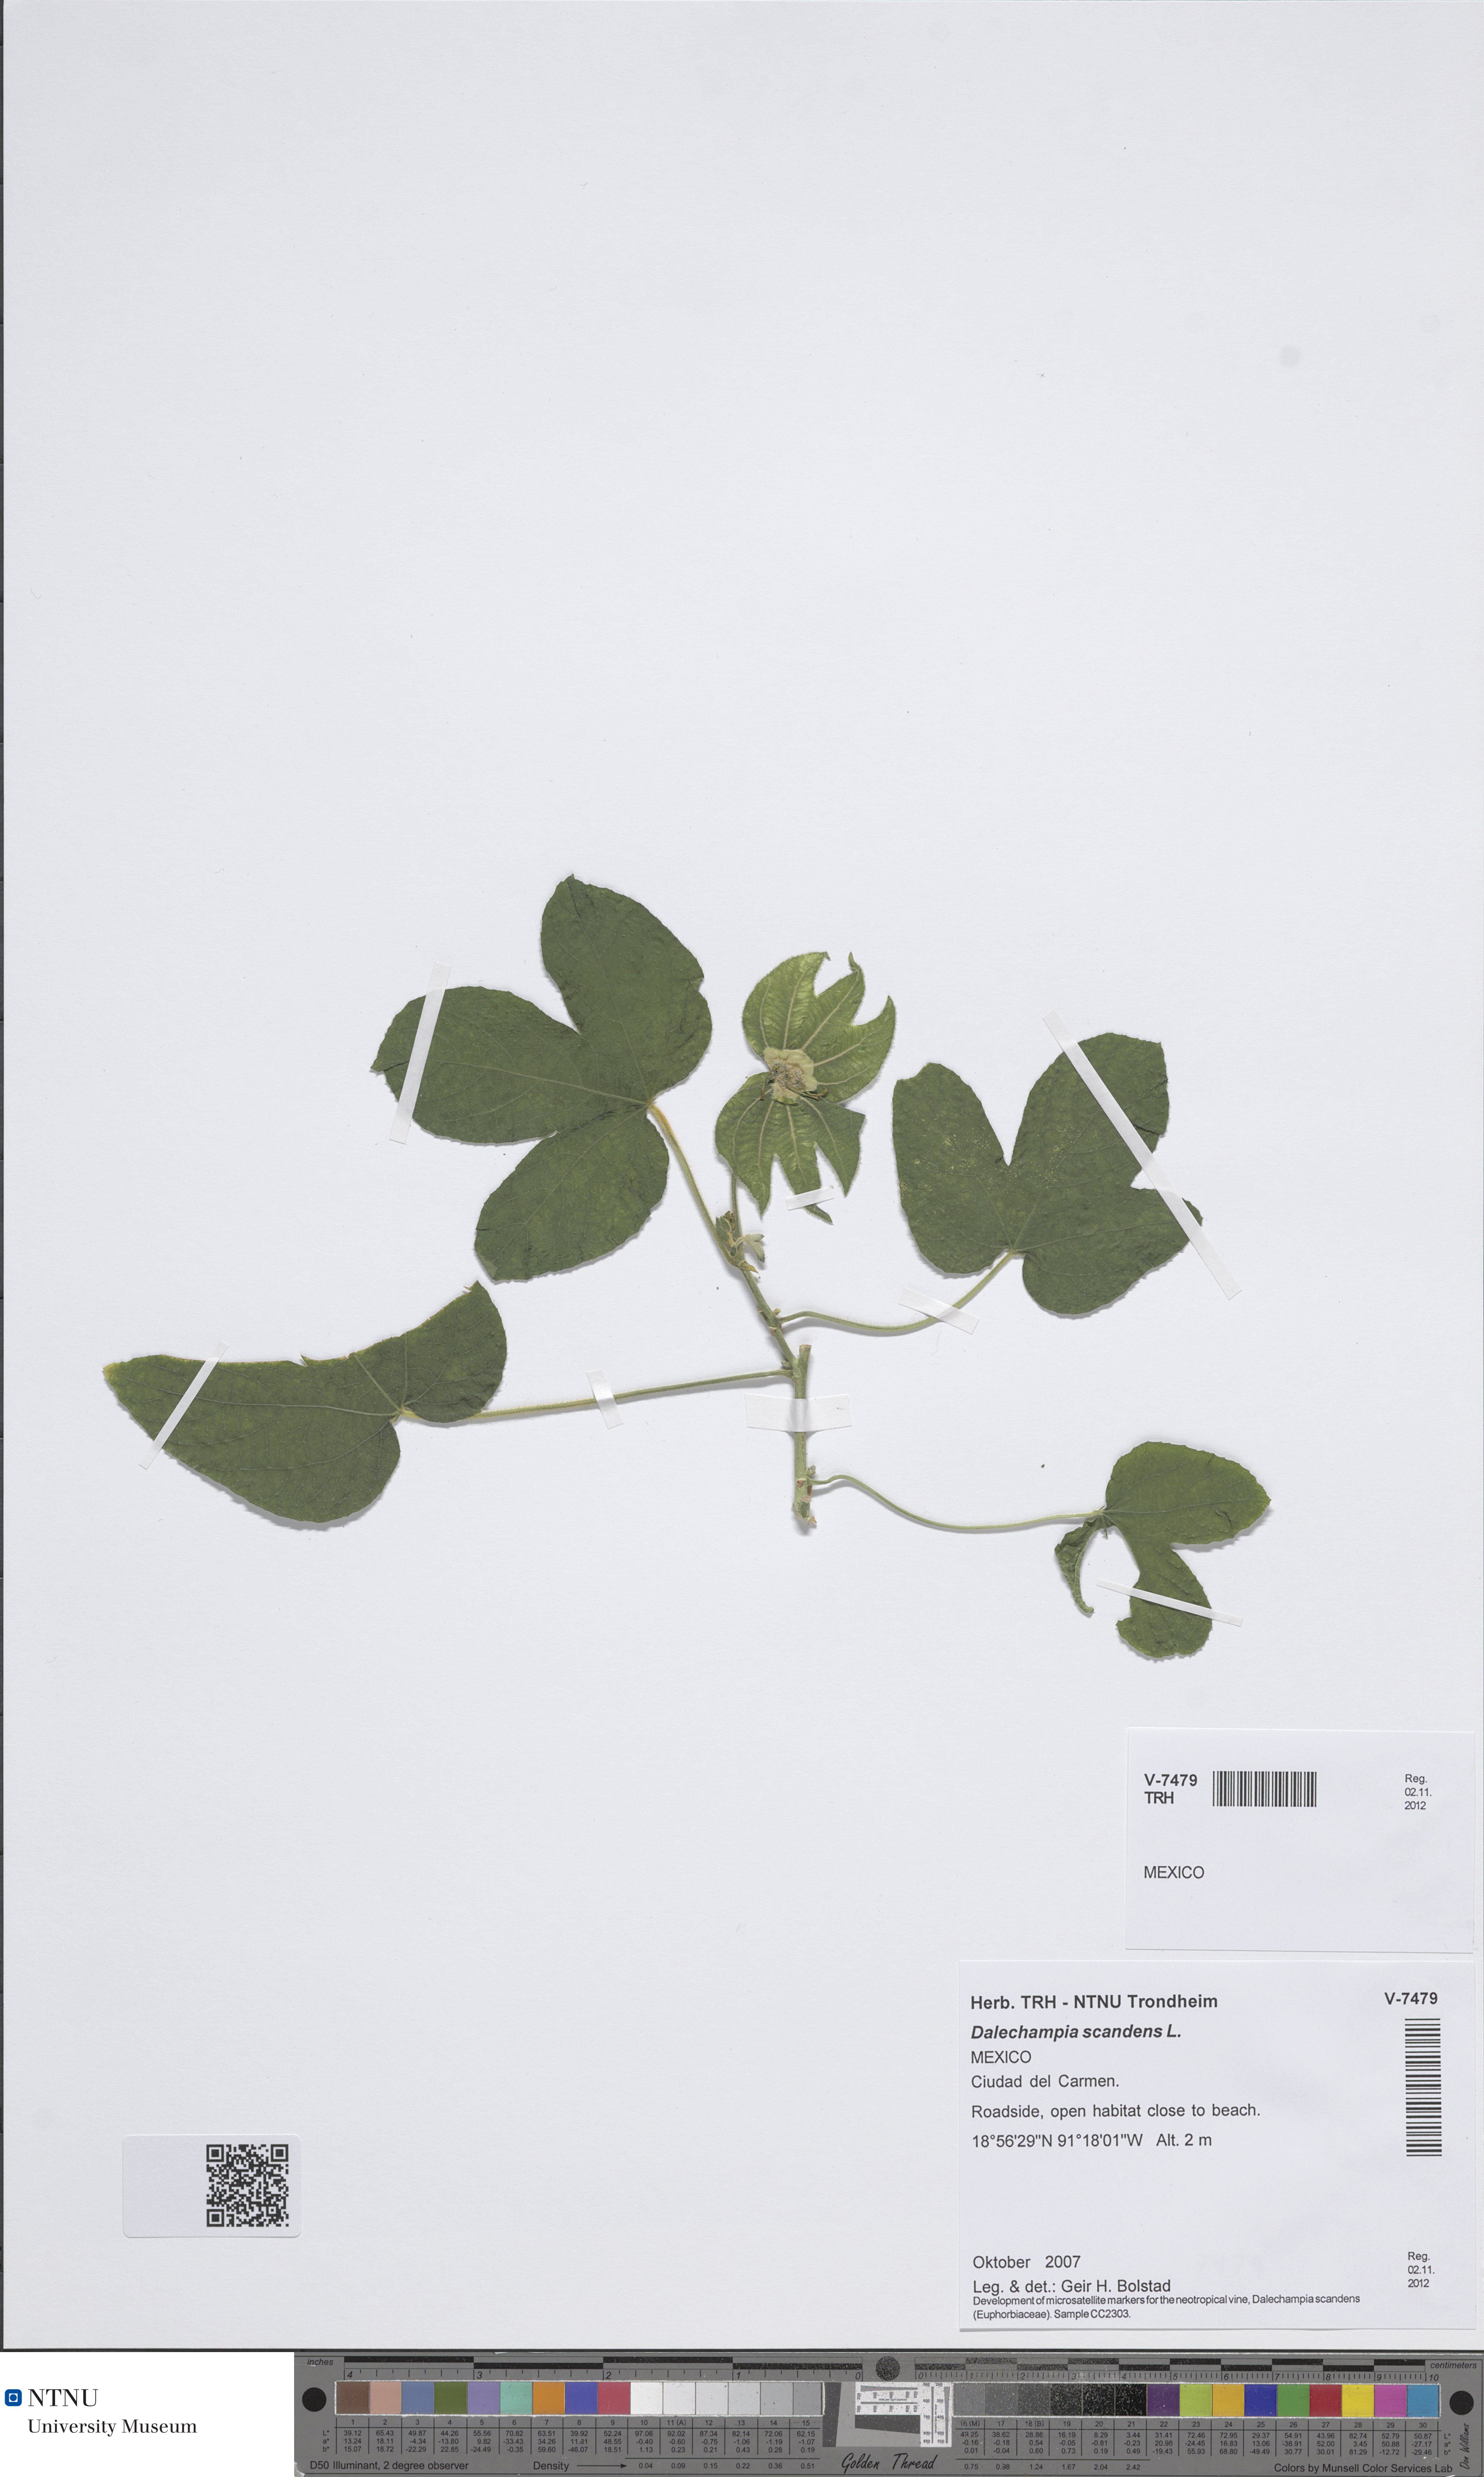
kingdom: Plantae
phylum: Tracheophyta
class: Magnoliopsida
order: Malpighiales
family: Euphorbiaceae
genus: Dalechampia
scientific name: Dalechampia scandens
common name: Spurgecreeper
